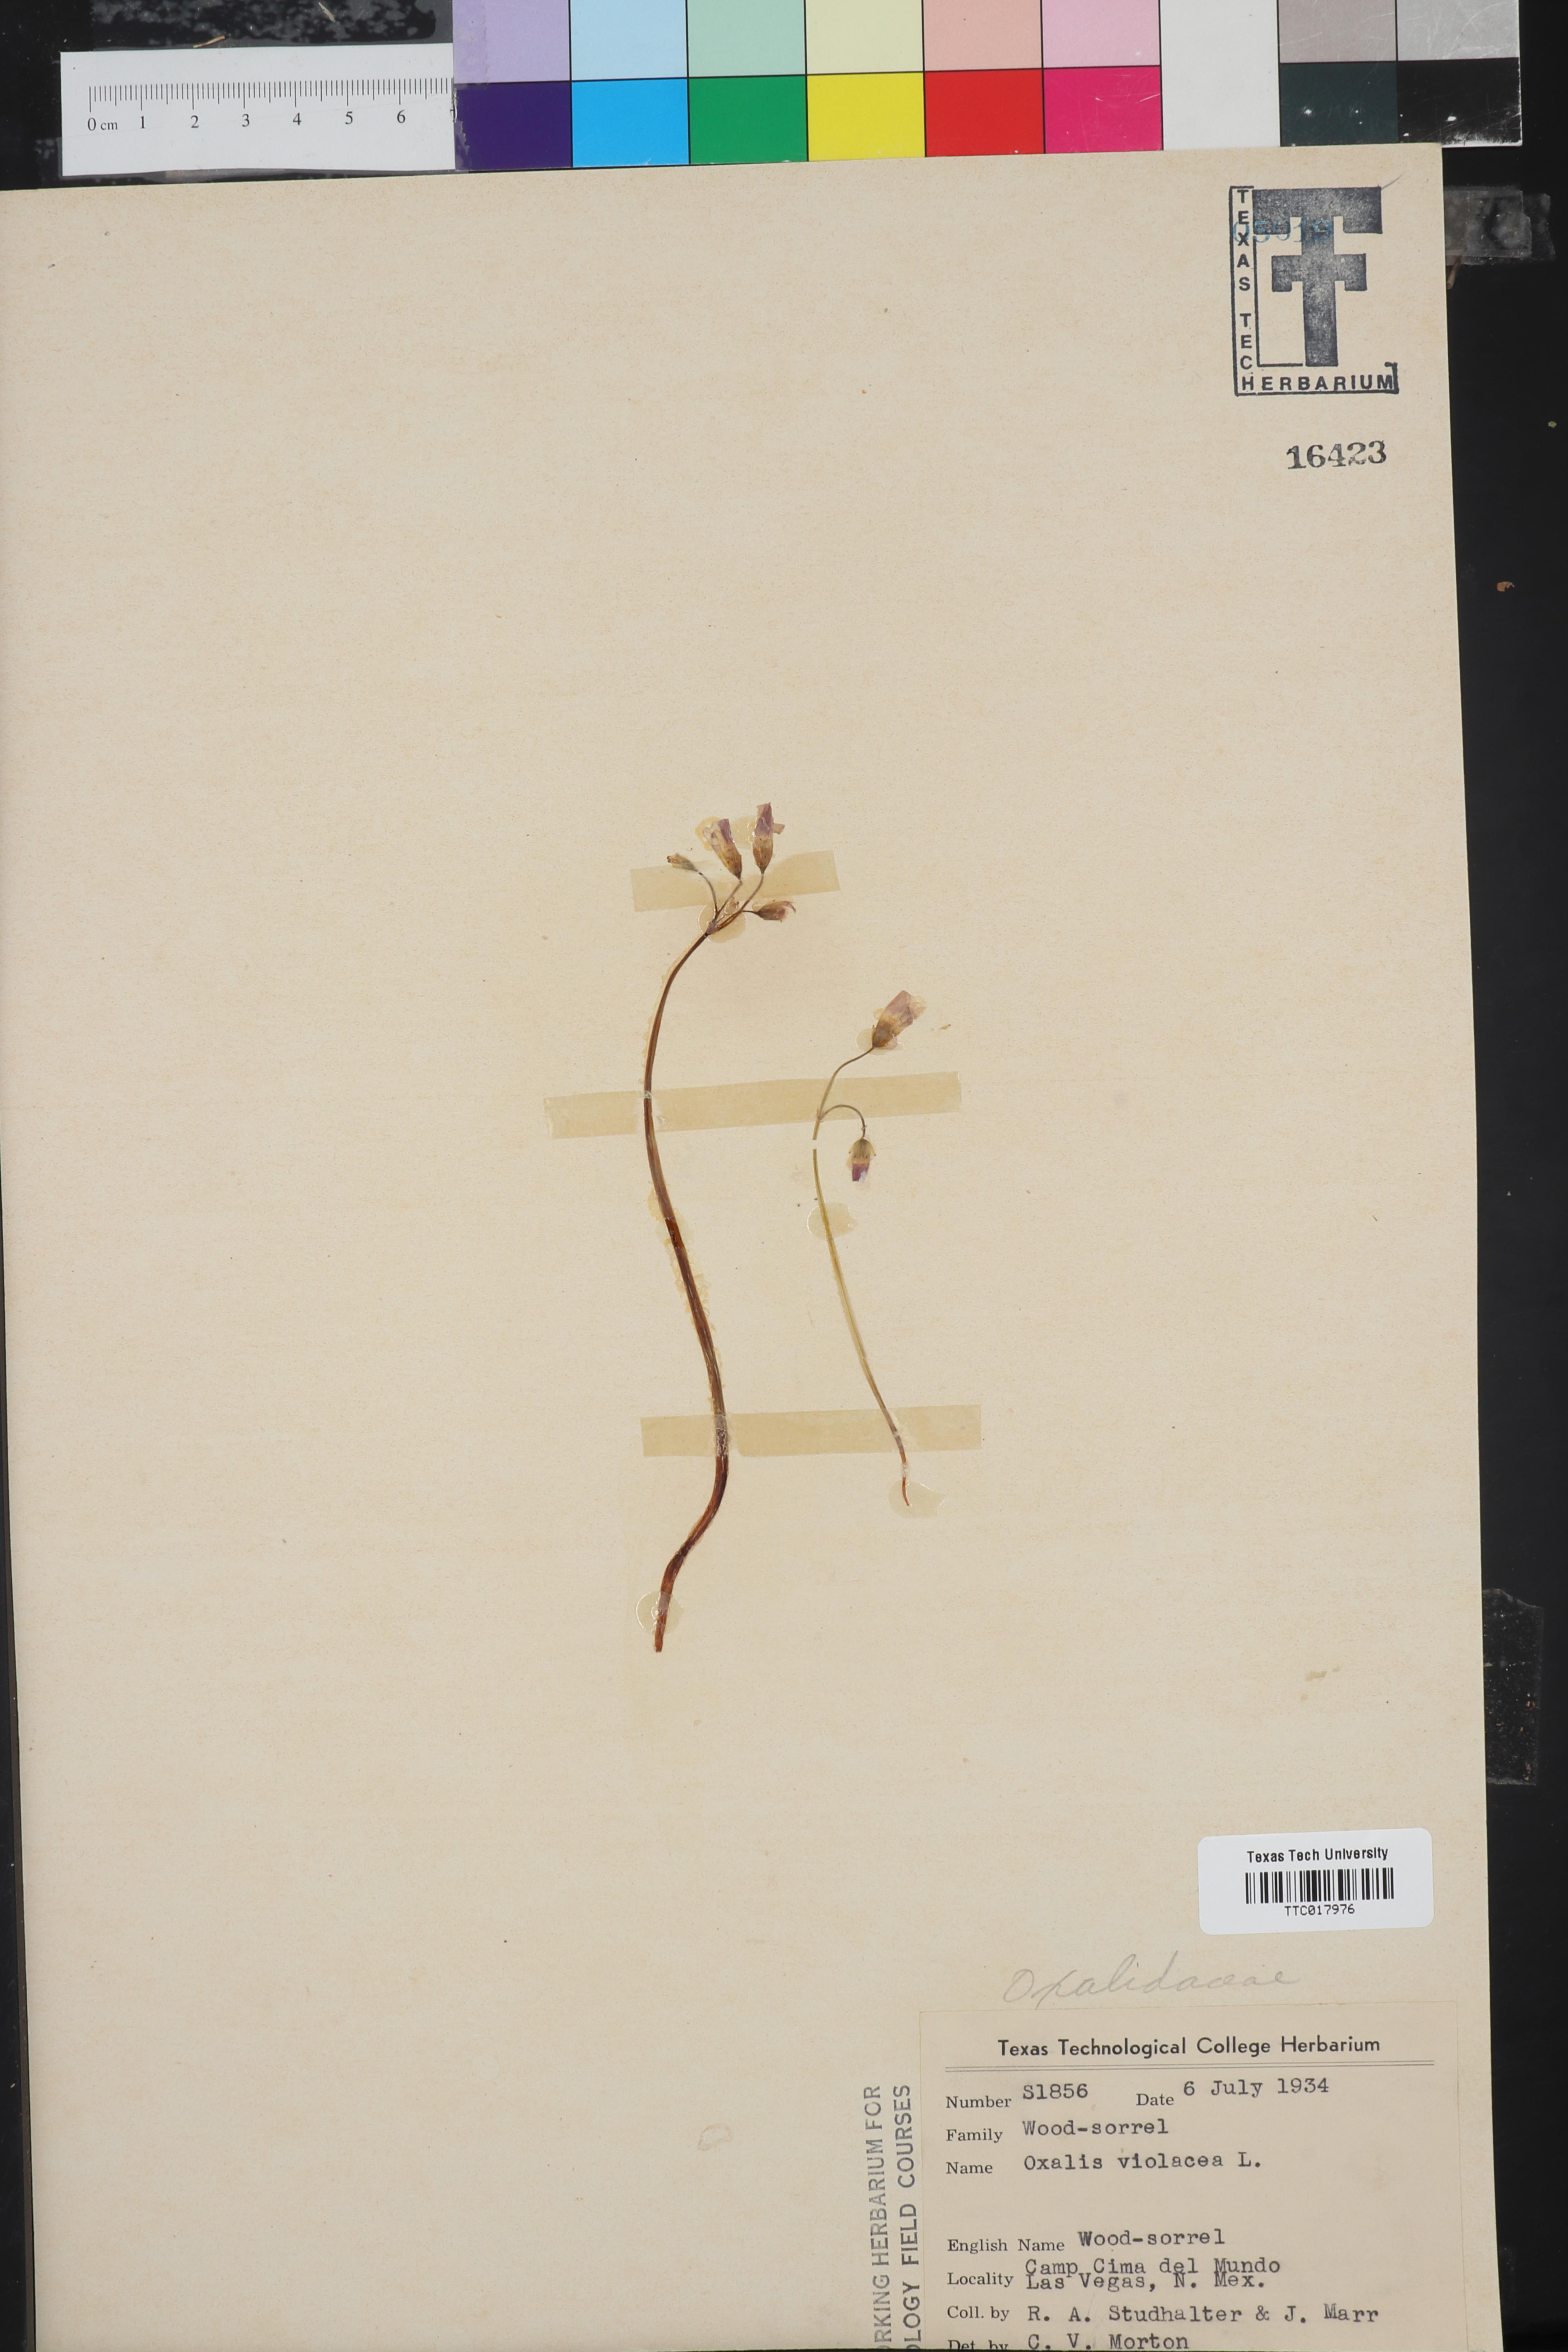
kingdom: Plantae
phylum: Tracheophyta
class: Magnoliopsida
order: Oxalidales
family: Oxalidaceae
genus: Oxalis
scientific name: Oxalis violacea
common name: Violet wood-sorrel
